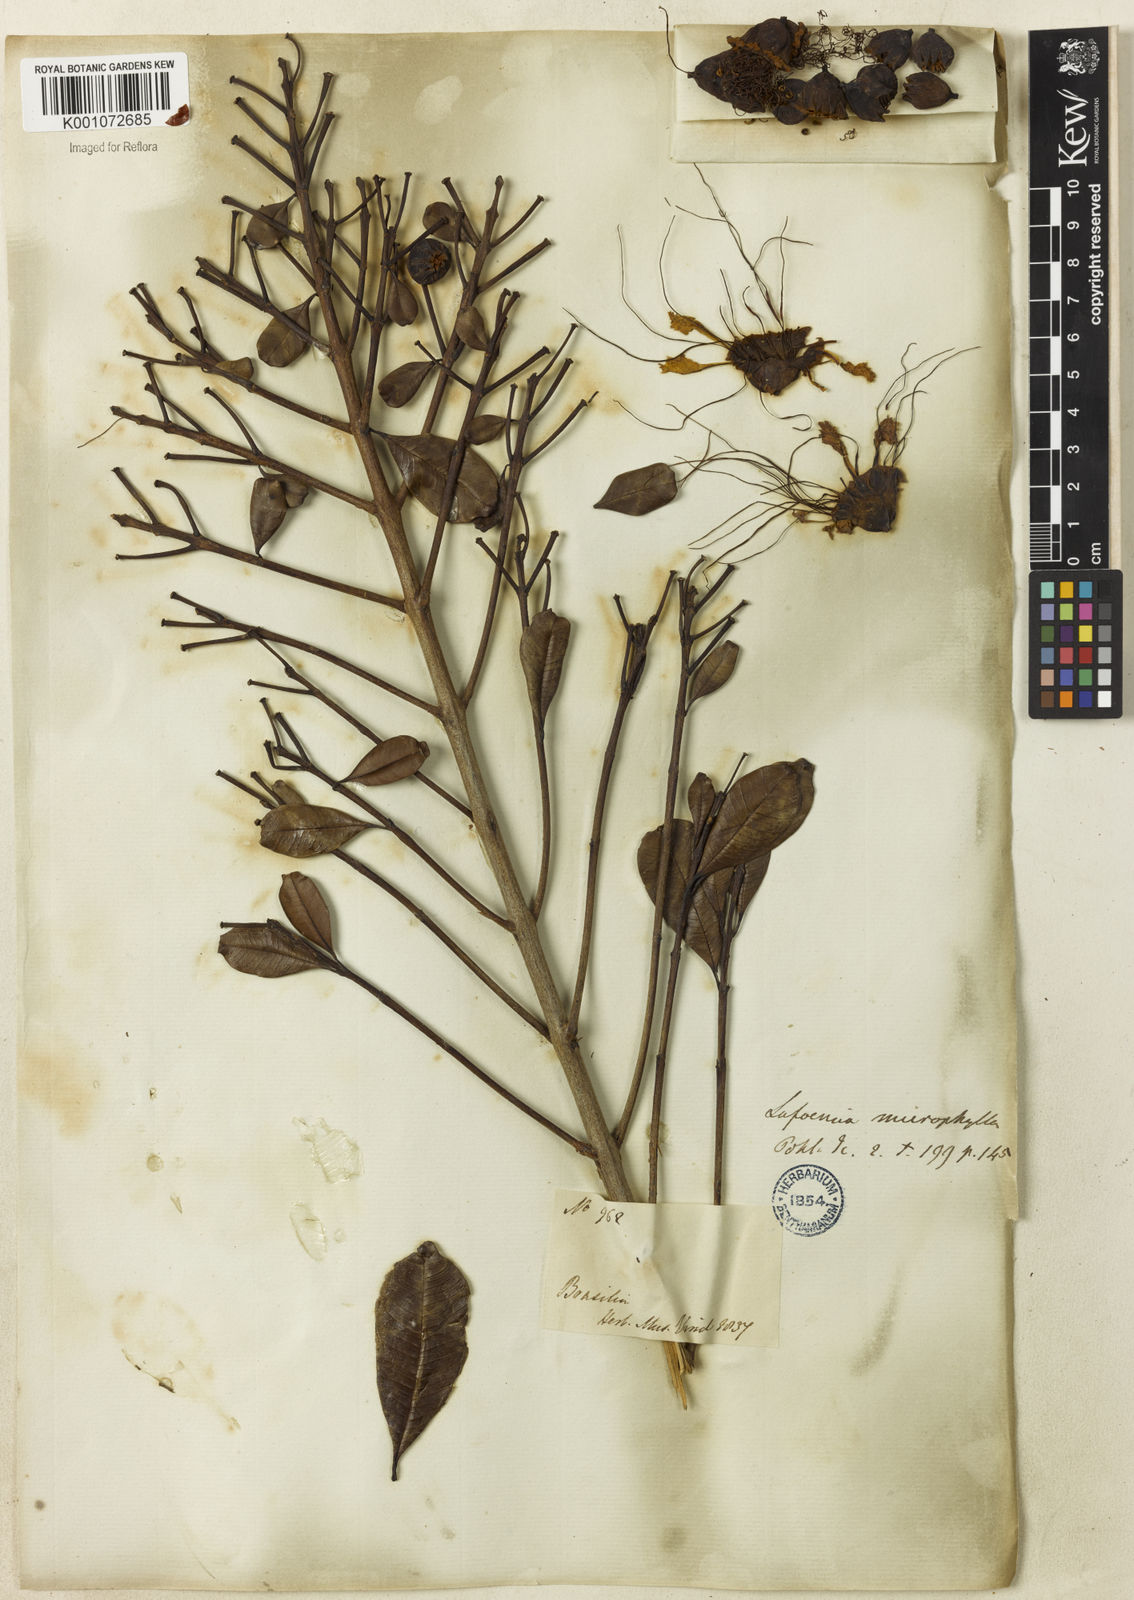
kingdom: Plantae
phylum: Tracheophyta
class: Magnoliopsida
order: Myrtales
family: Lythraceae
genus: Lafoensia
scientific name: Lafoensia vandelliana
